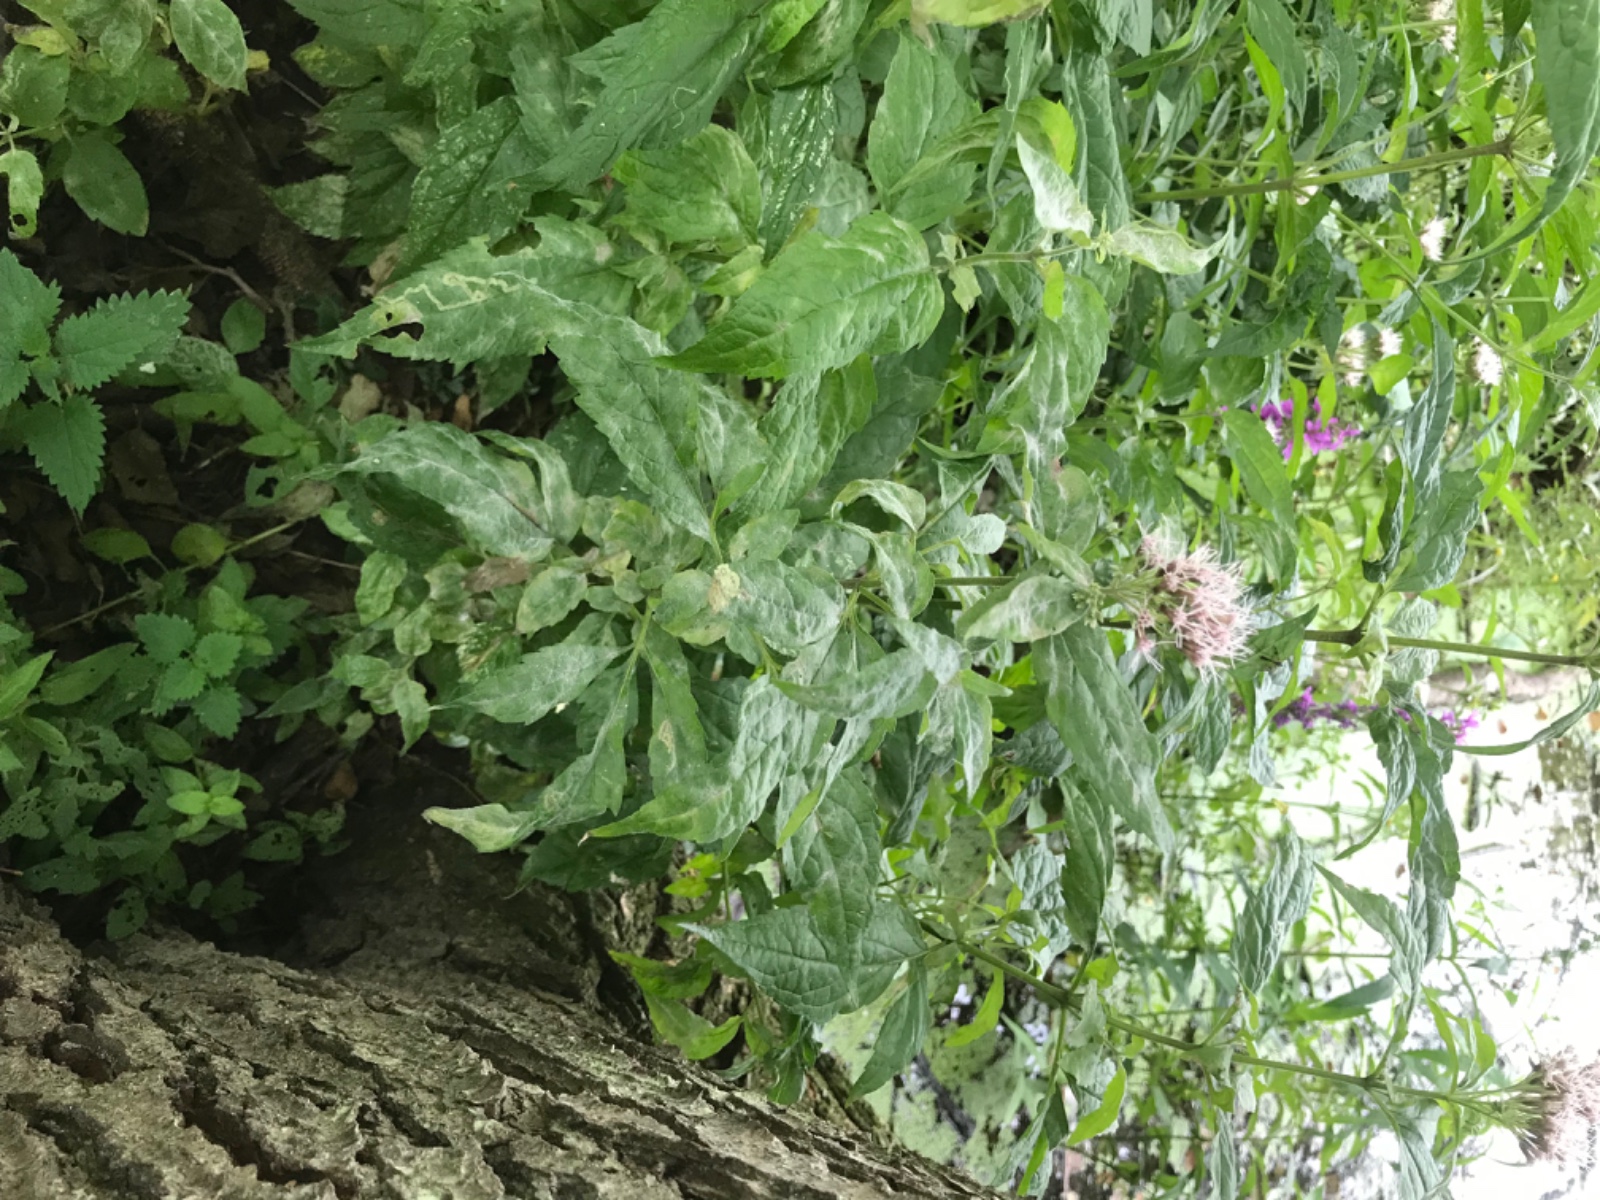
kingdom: Fungi
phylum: Ascomycota
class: Leotiomycetes
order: Helotiales
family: Erysiphaceae
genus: Golovinomyces
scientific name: Golovinomyces circumfusus
